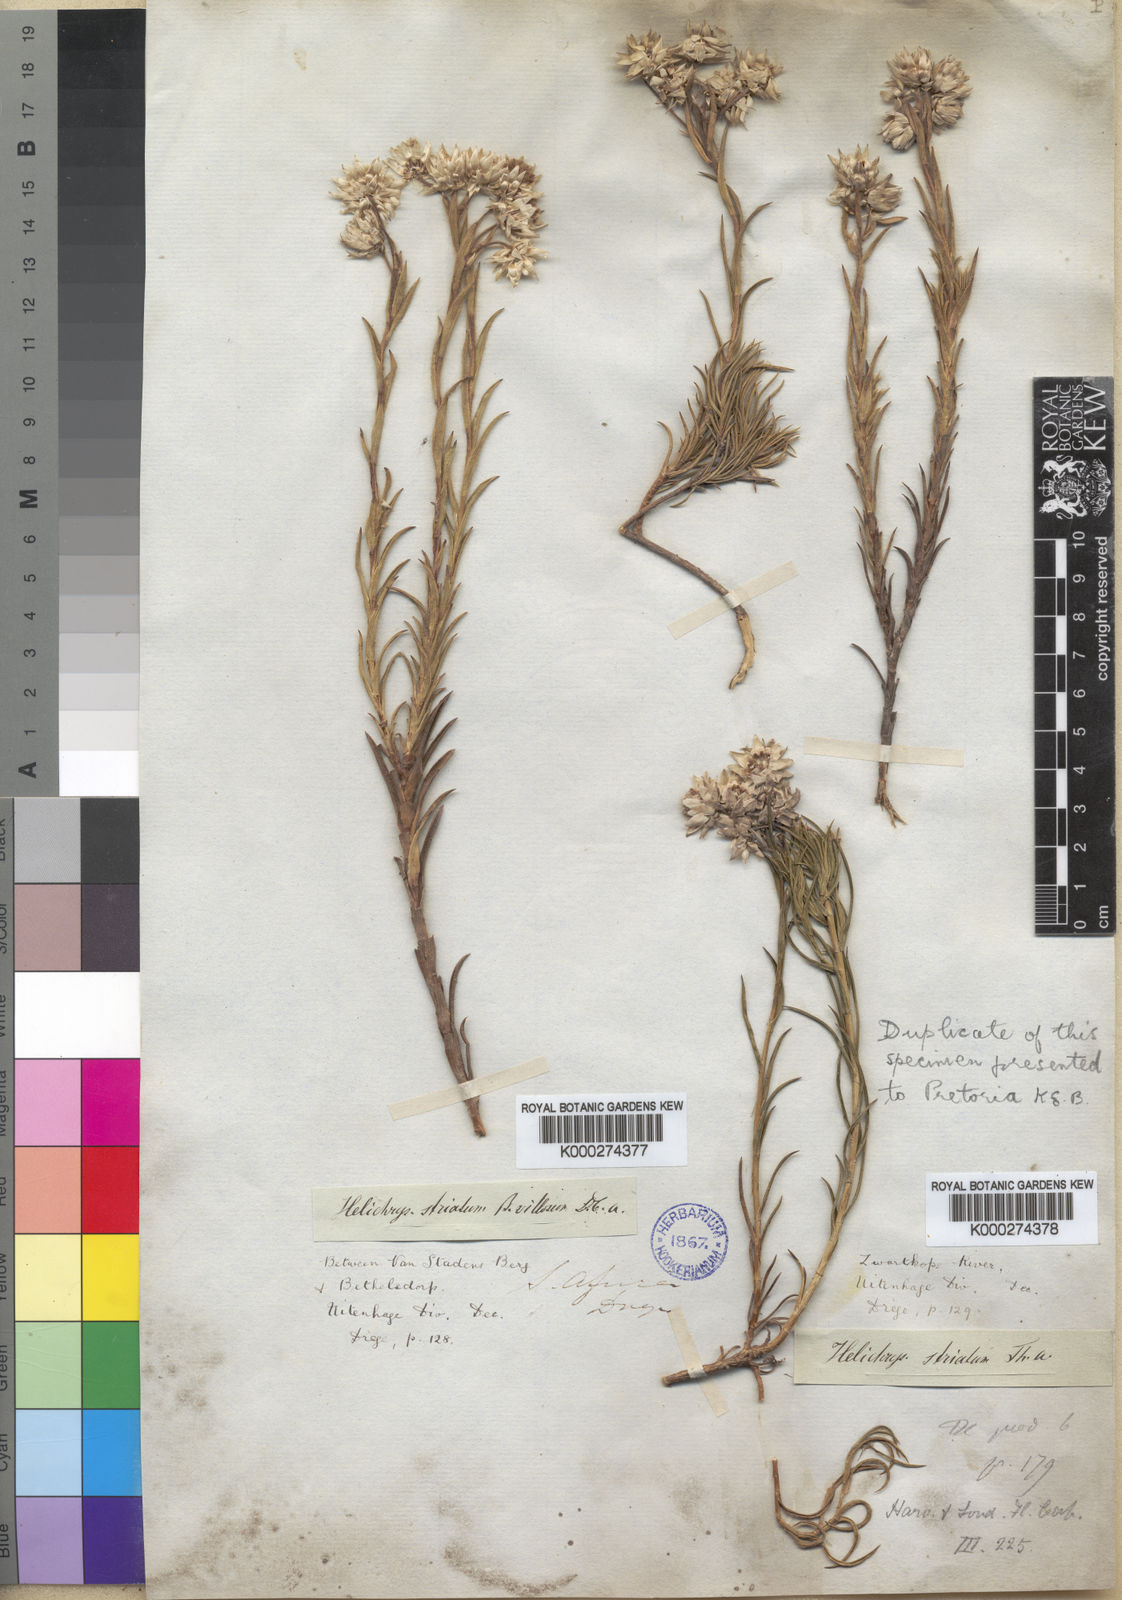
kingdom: Plantae
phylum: Tracheophyta
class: Magnoliopsida
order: Asterales
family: Asteraceae
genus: Achyranthemum
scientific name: Achyranthemum striatum
